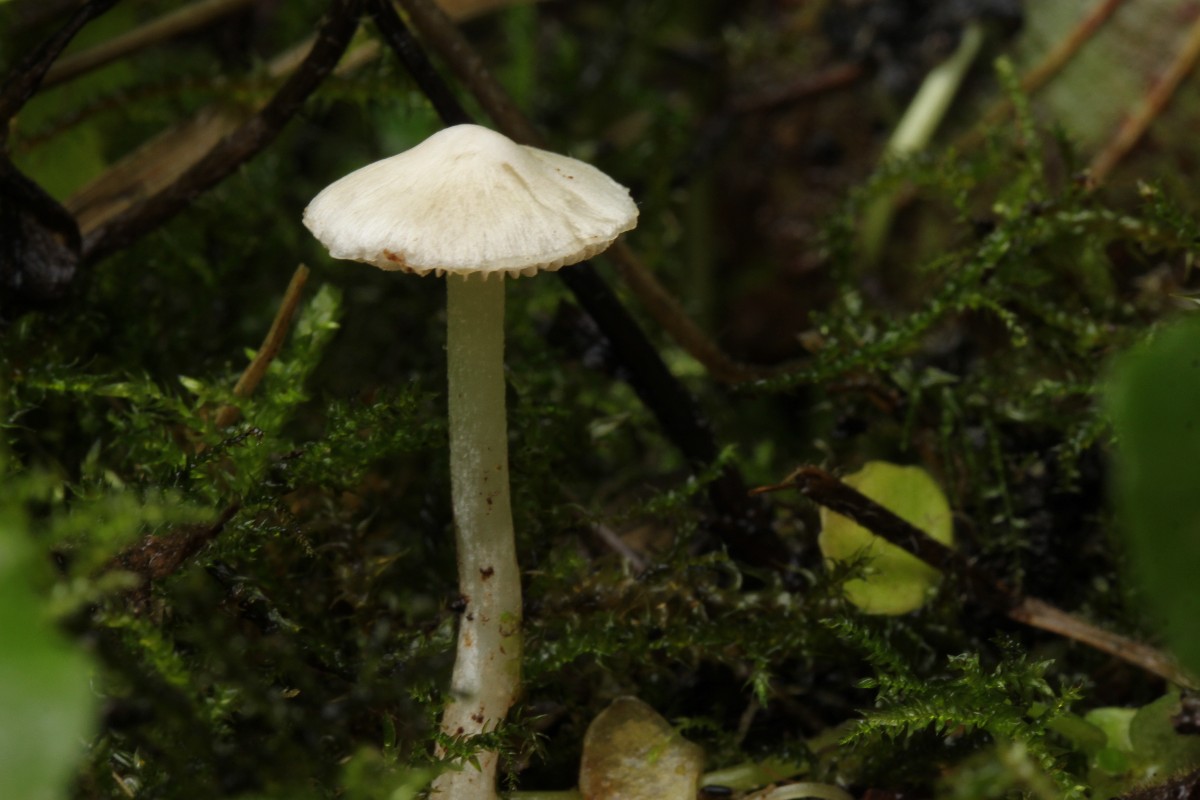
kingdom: Fungi
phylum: Basidiomycota
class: Agaricomycetes
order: Agaricales
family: Inocybaceae
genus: Inocybe
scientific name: Inocybe
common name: trævlhat
